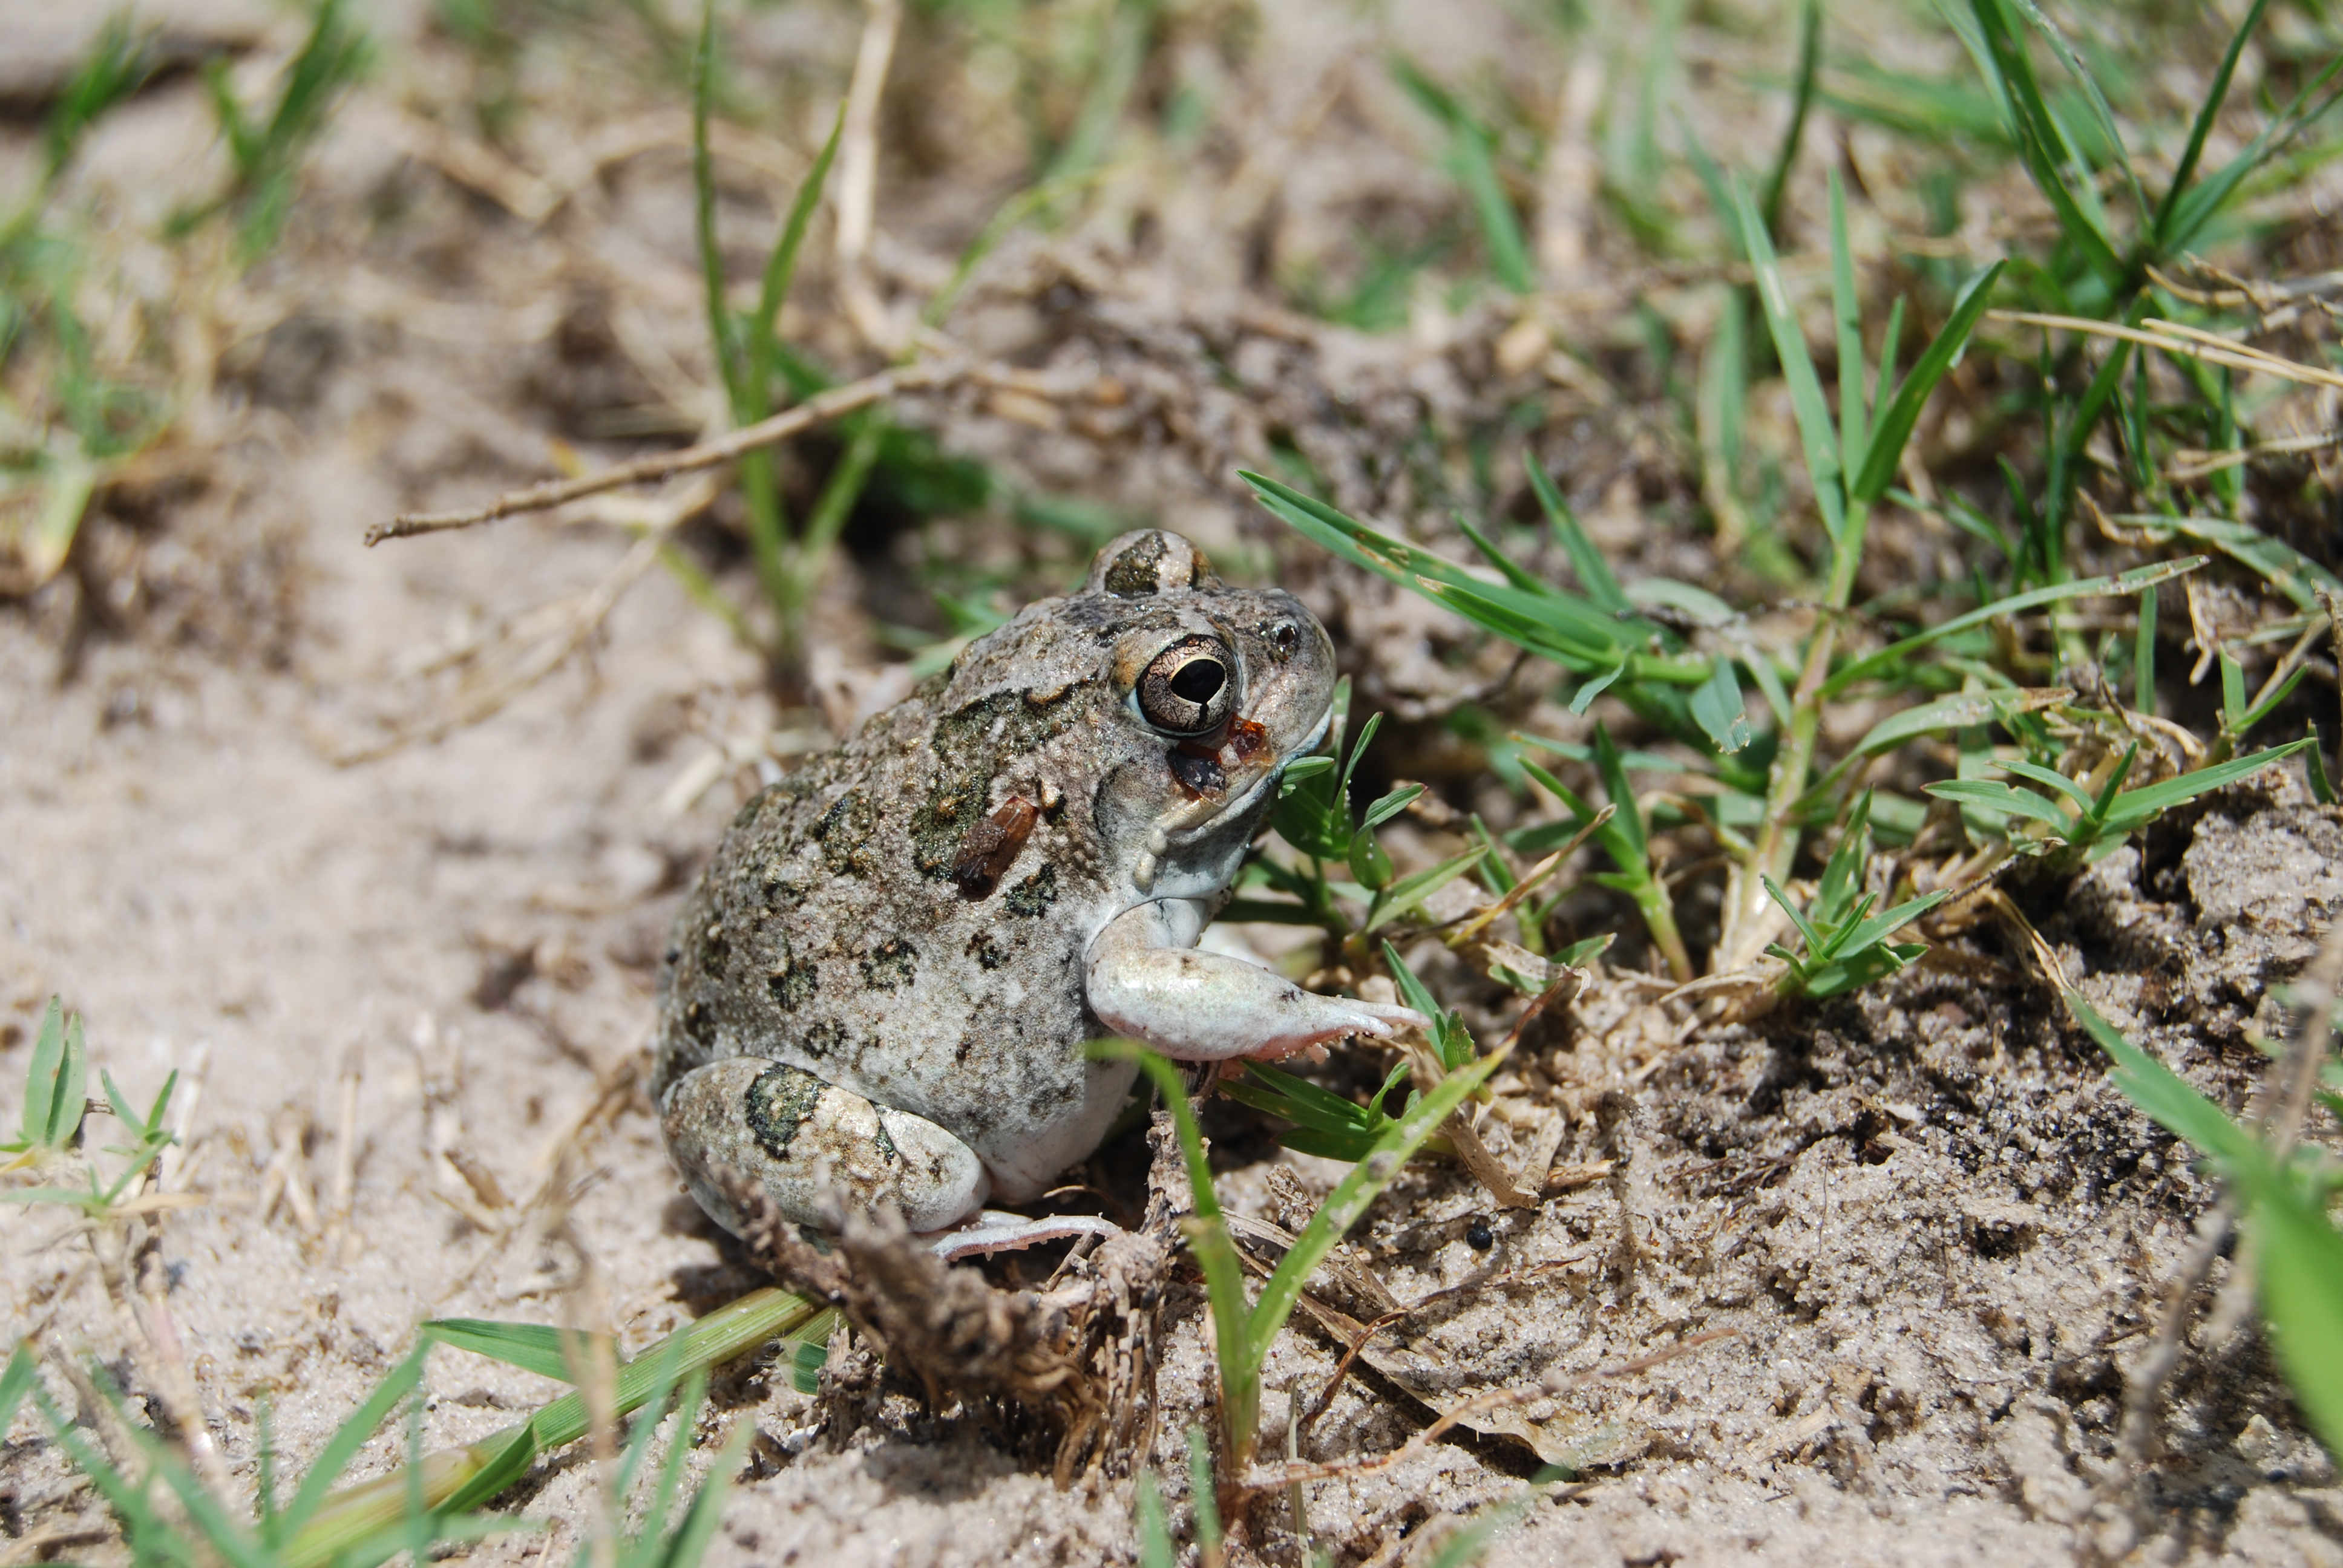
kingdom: Animalia
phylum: Chordata
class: Amphibia
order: Anura
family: Pyxicephalidae
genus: Tomopterna
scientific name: Tomopterna cryptotis
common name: Catequero bullfrog
